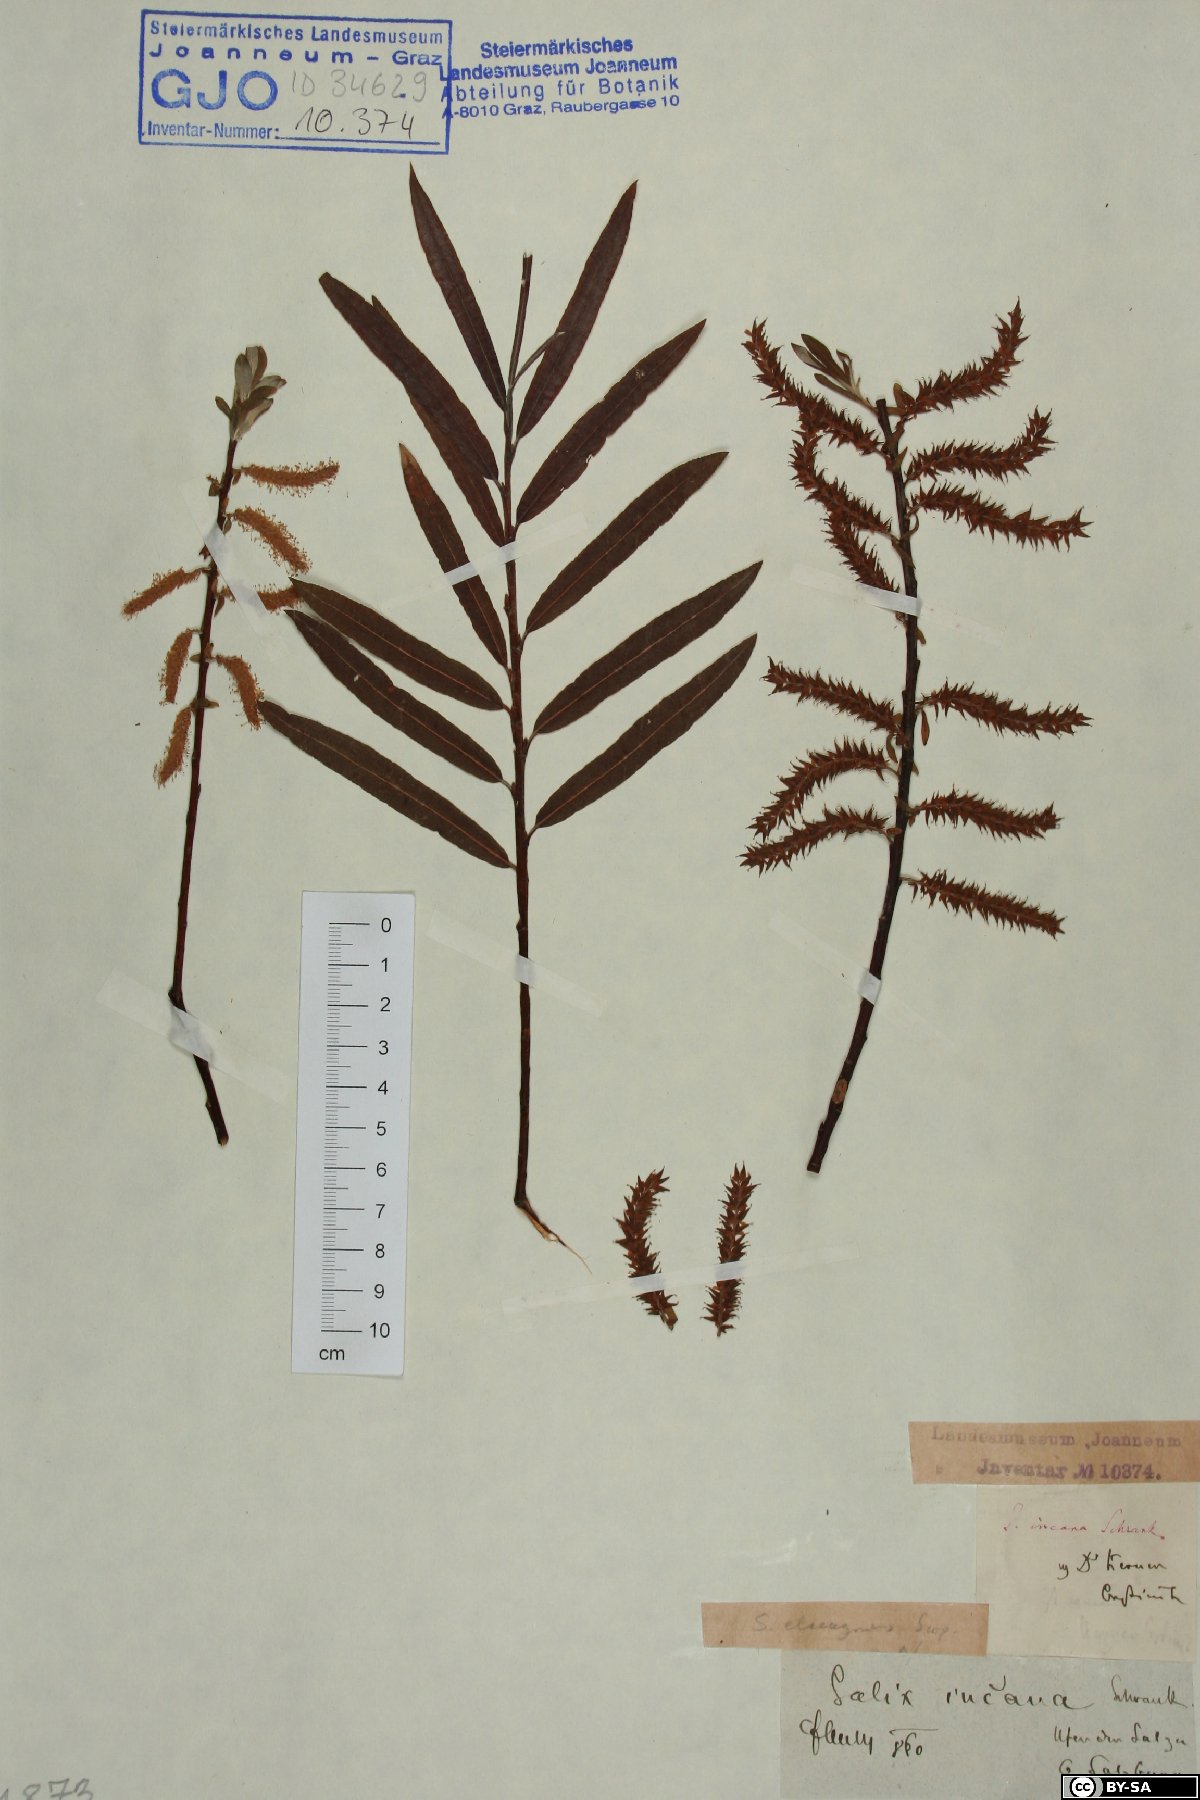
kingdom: Plantae
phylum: Tracheophyta
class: Magnoliopsida
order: Malpighiales
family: Salicaceae
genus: Salix
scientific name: Salix eleagnos
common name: Elaeagnus willow
